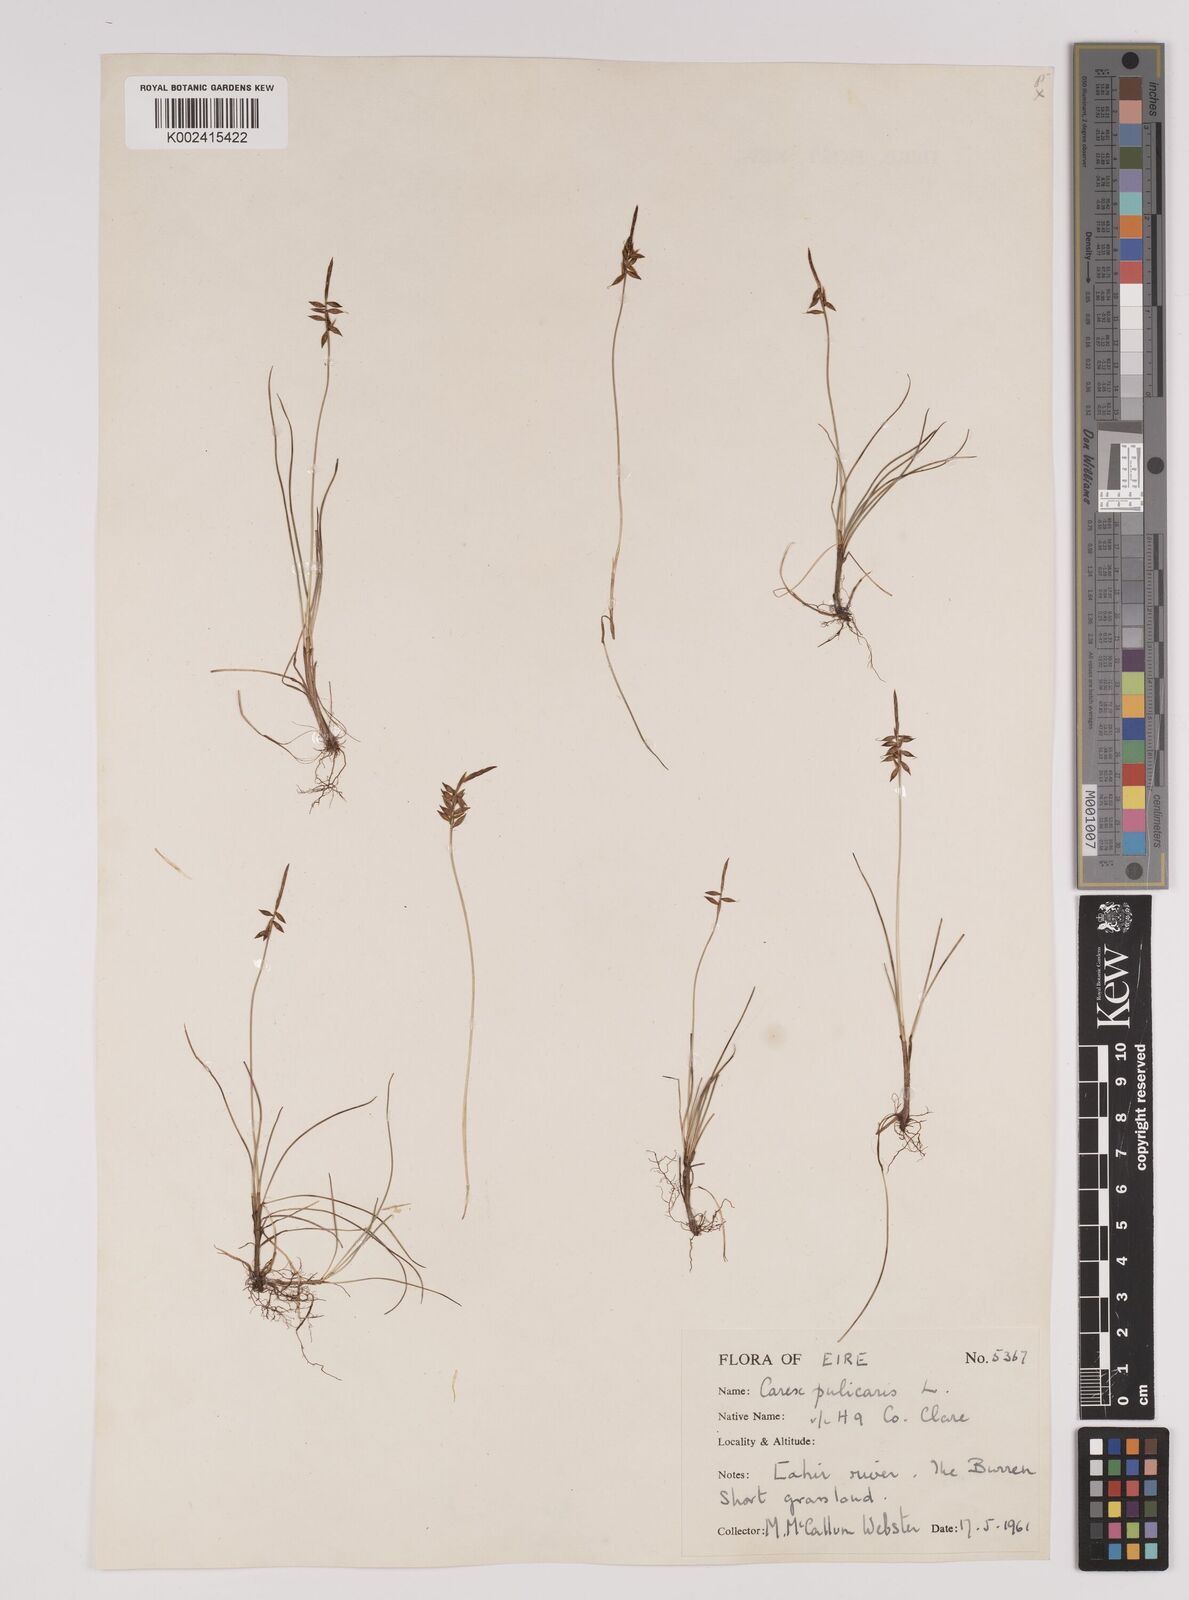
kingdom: Plantae
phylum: Tracheophyta
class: Liliopsida
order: Poales
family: Cyperaceae
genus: Carex
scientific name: Carex pulicaris
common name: Flea sedge
